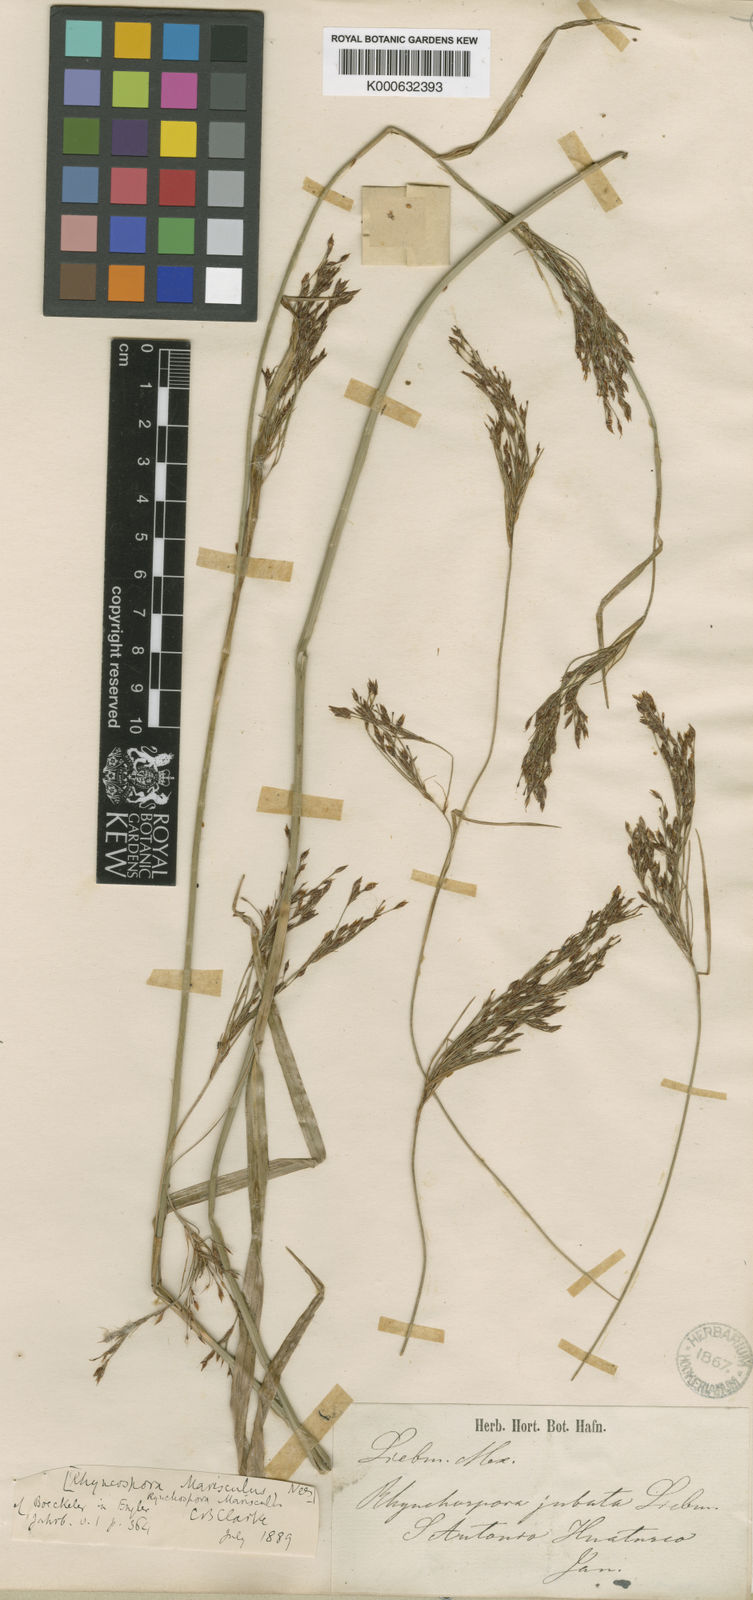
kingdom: Plantae
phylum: Tracheophyta
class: Liliopsida
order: Poales
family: Cyperaceae
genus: Rhynchospora
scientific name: Rhynchospora marisculus
